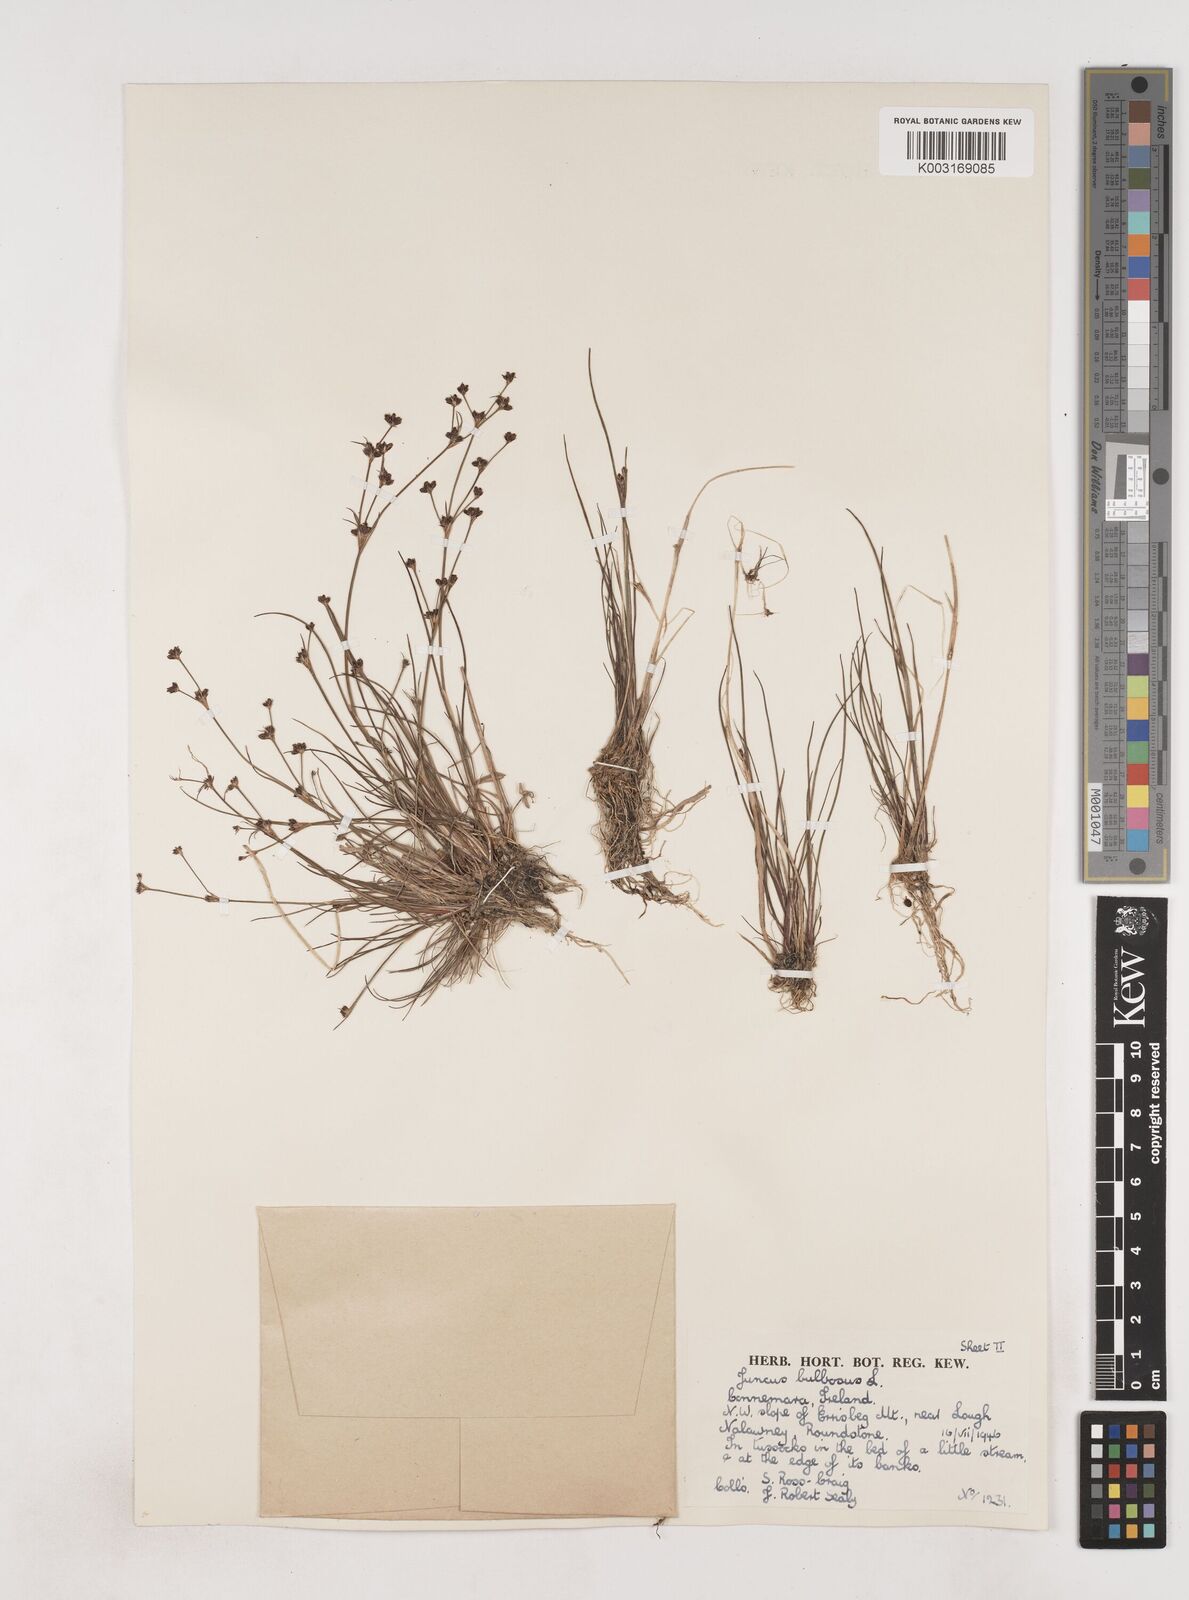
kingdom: Plantae
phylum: Tracheophyta
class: Liliopsida
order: Poales
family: Juncaceae
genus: Juncus
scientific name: Juncus bulbosus
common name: Bulbous rush
